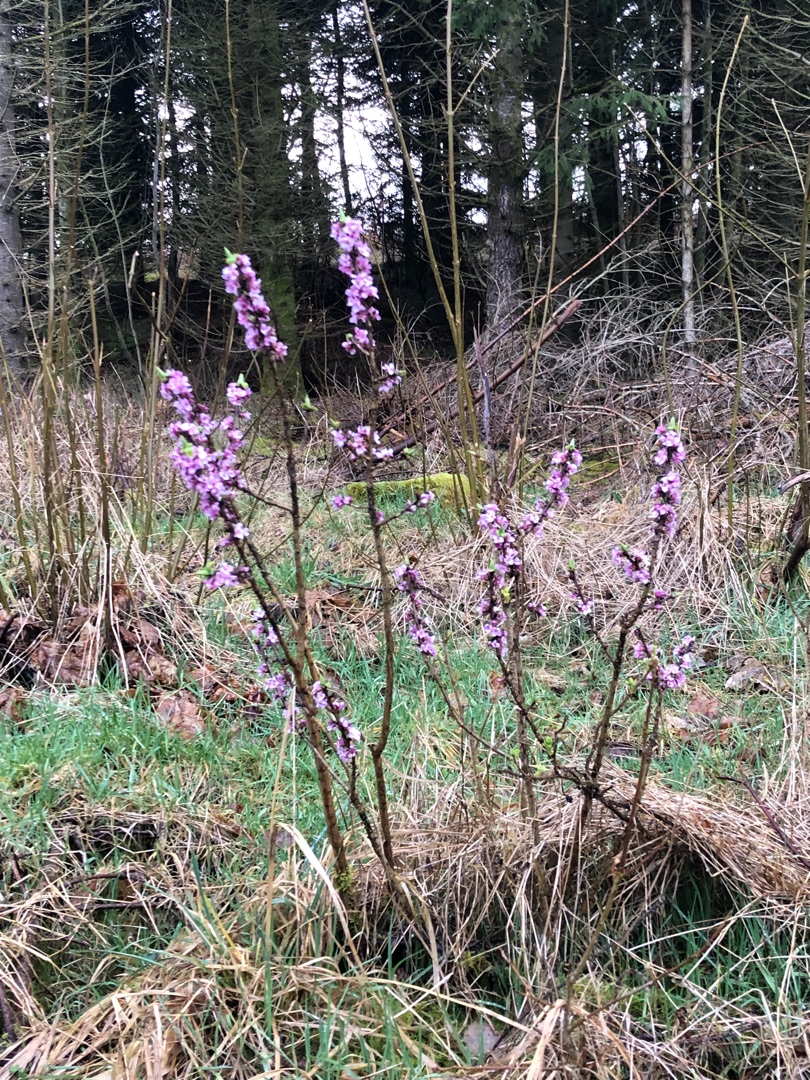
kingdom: Plantae
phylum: Tracheophyta
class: Magnoliopsida
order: Malvales
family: Thymelaeaceae
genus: Daphne
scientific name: Daphne mezereum
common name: Pebertræ
